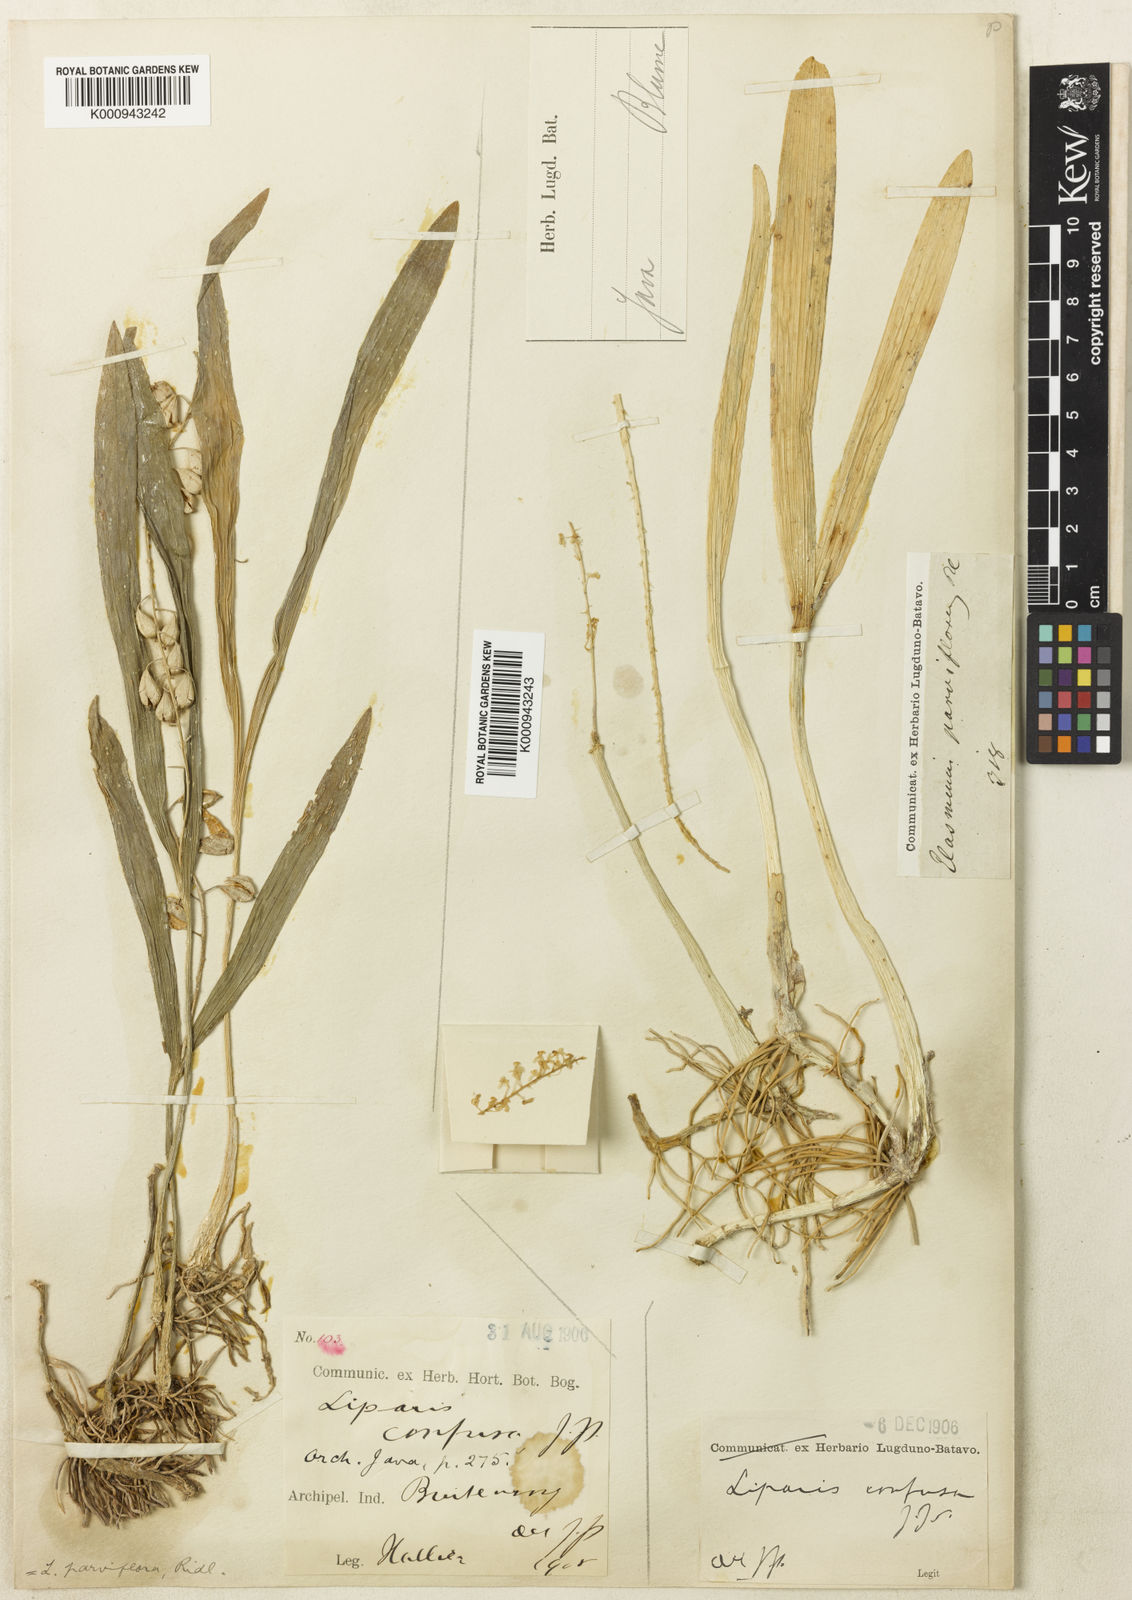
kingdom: Plantae
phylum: Tracheophyta
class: Liliopsida
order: Asparagales
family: Orchidaceae
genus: Liparis
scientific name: Liparis condylobulbon
